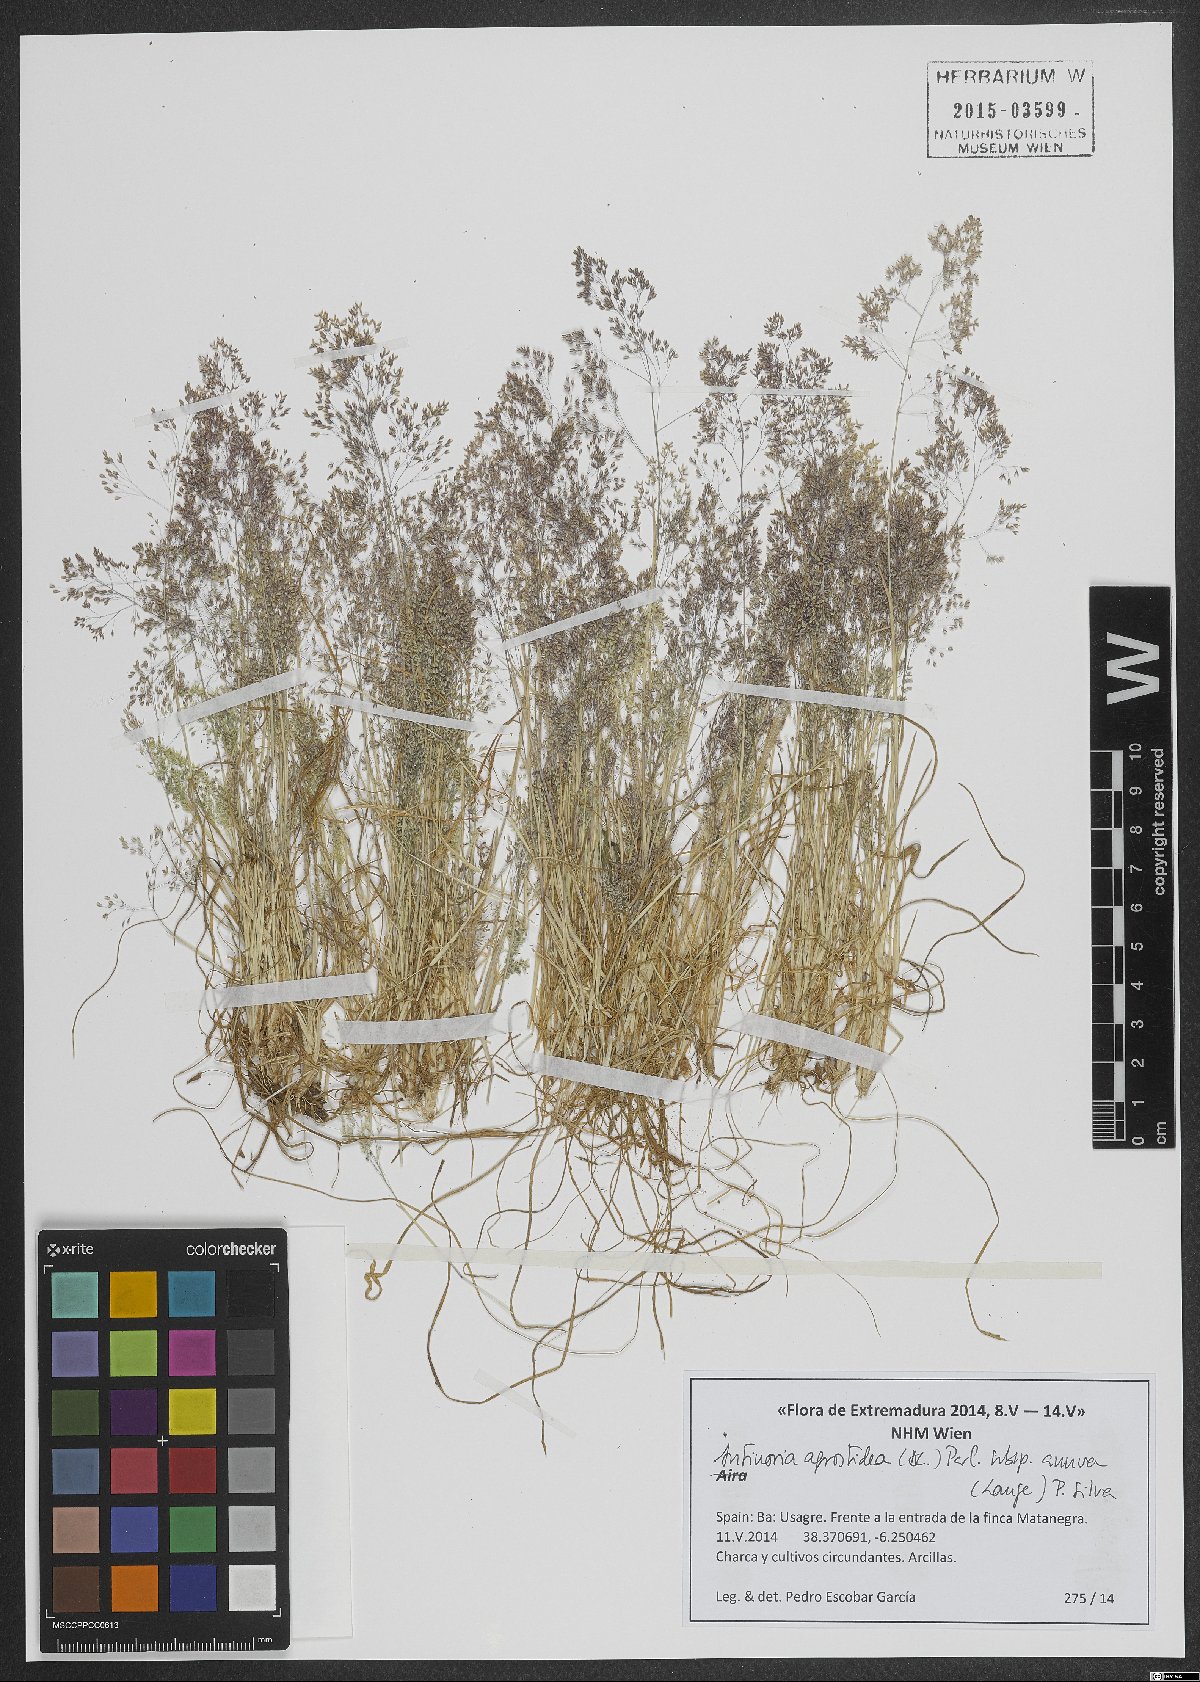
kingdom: Plantae
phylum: Tracheophyta
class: Liliopsida
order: Poales
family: Poaceae
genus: Antinoria
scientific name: Antinoria agrostidea
